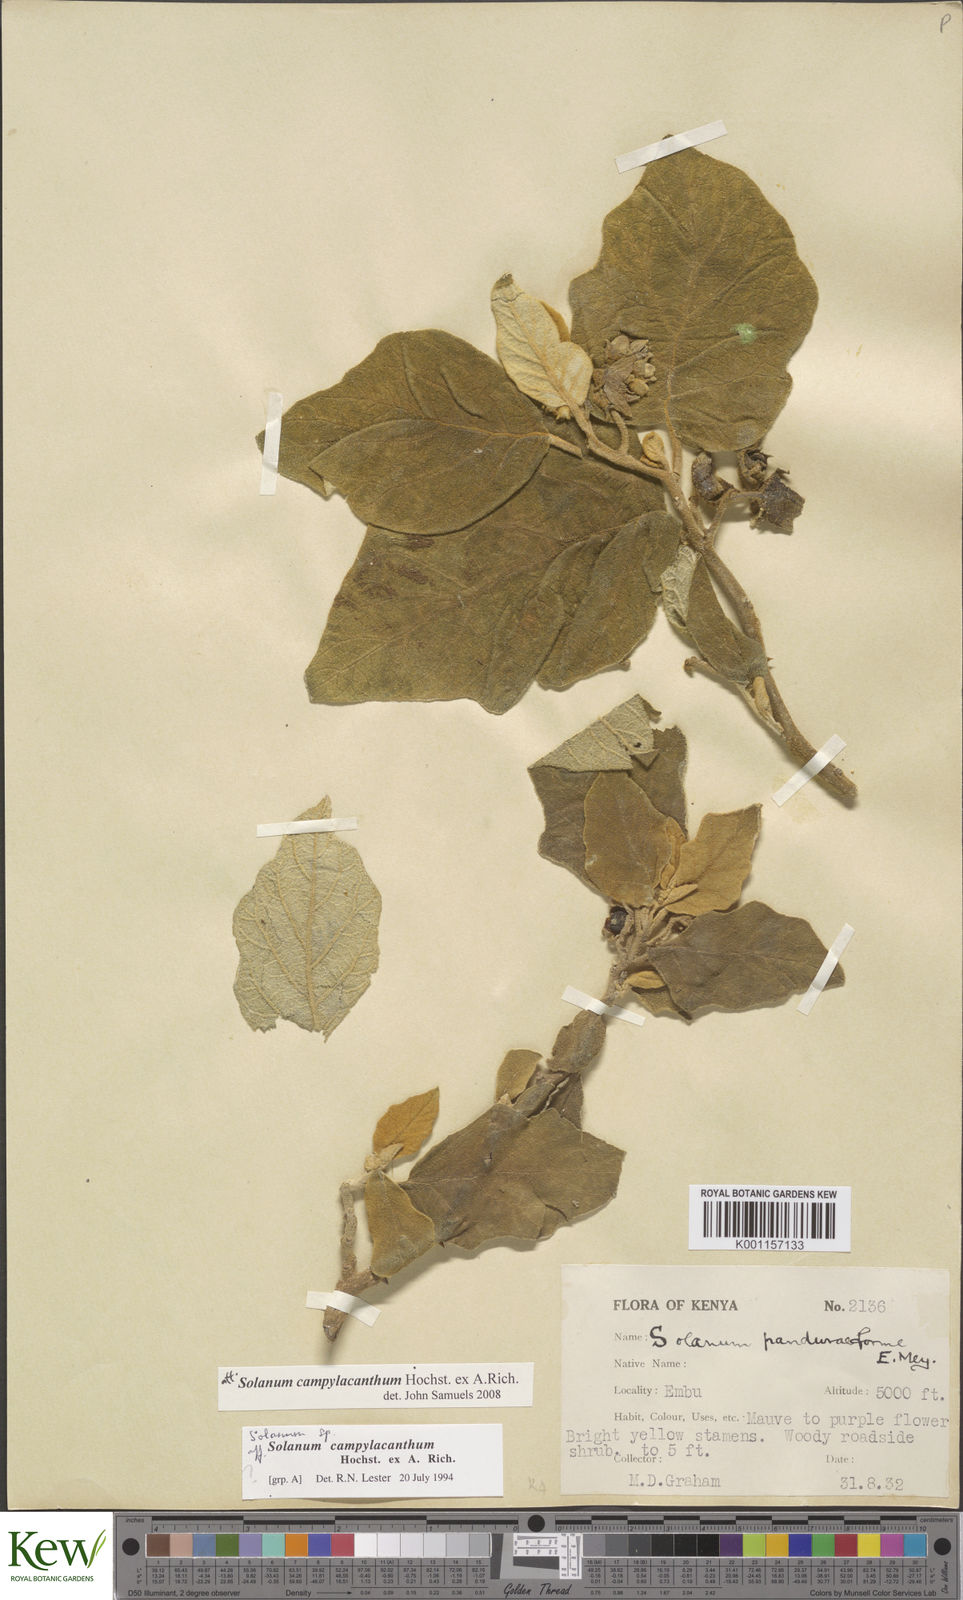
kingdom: Plantae
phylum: Tracheophyta
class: Magnoliopsida
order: Solanales
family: Solanaceae
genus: Solanum
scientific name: Solanum campylacanthum
